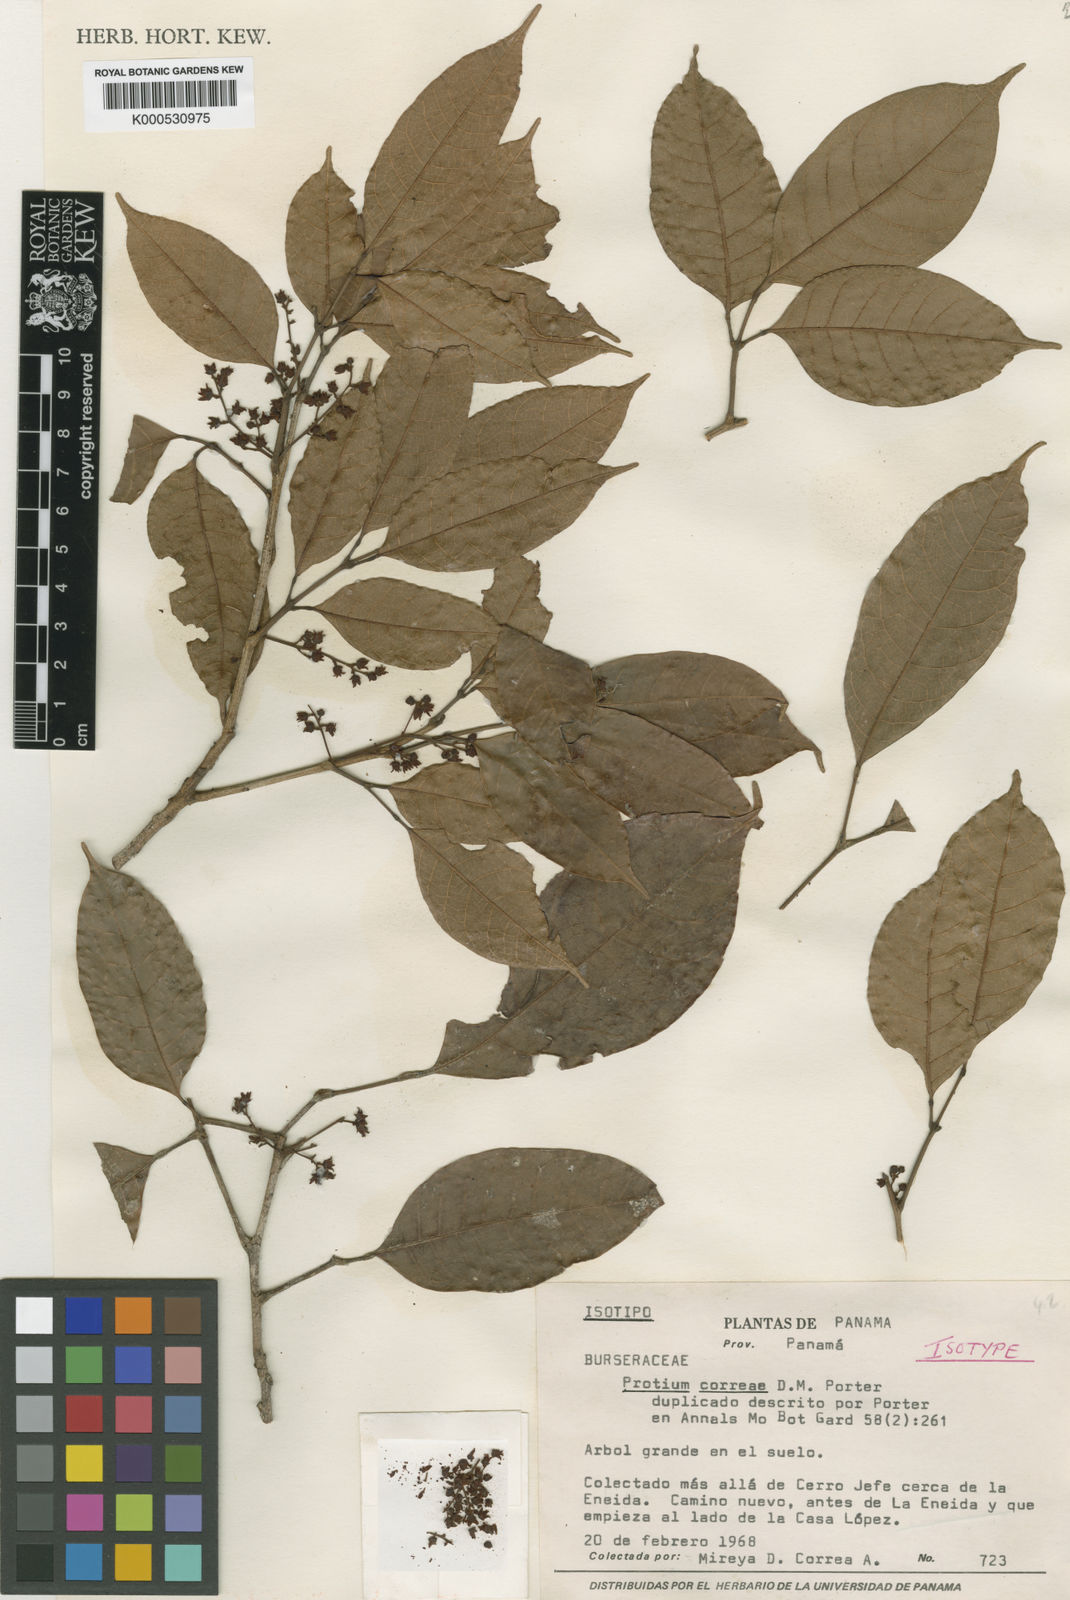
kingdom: Plantae
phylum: Tracheophyta
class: Magnoliopsida
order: Sapindales
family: Burseraceae
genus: Protium
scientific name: Protium confusum
